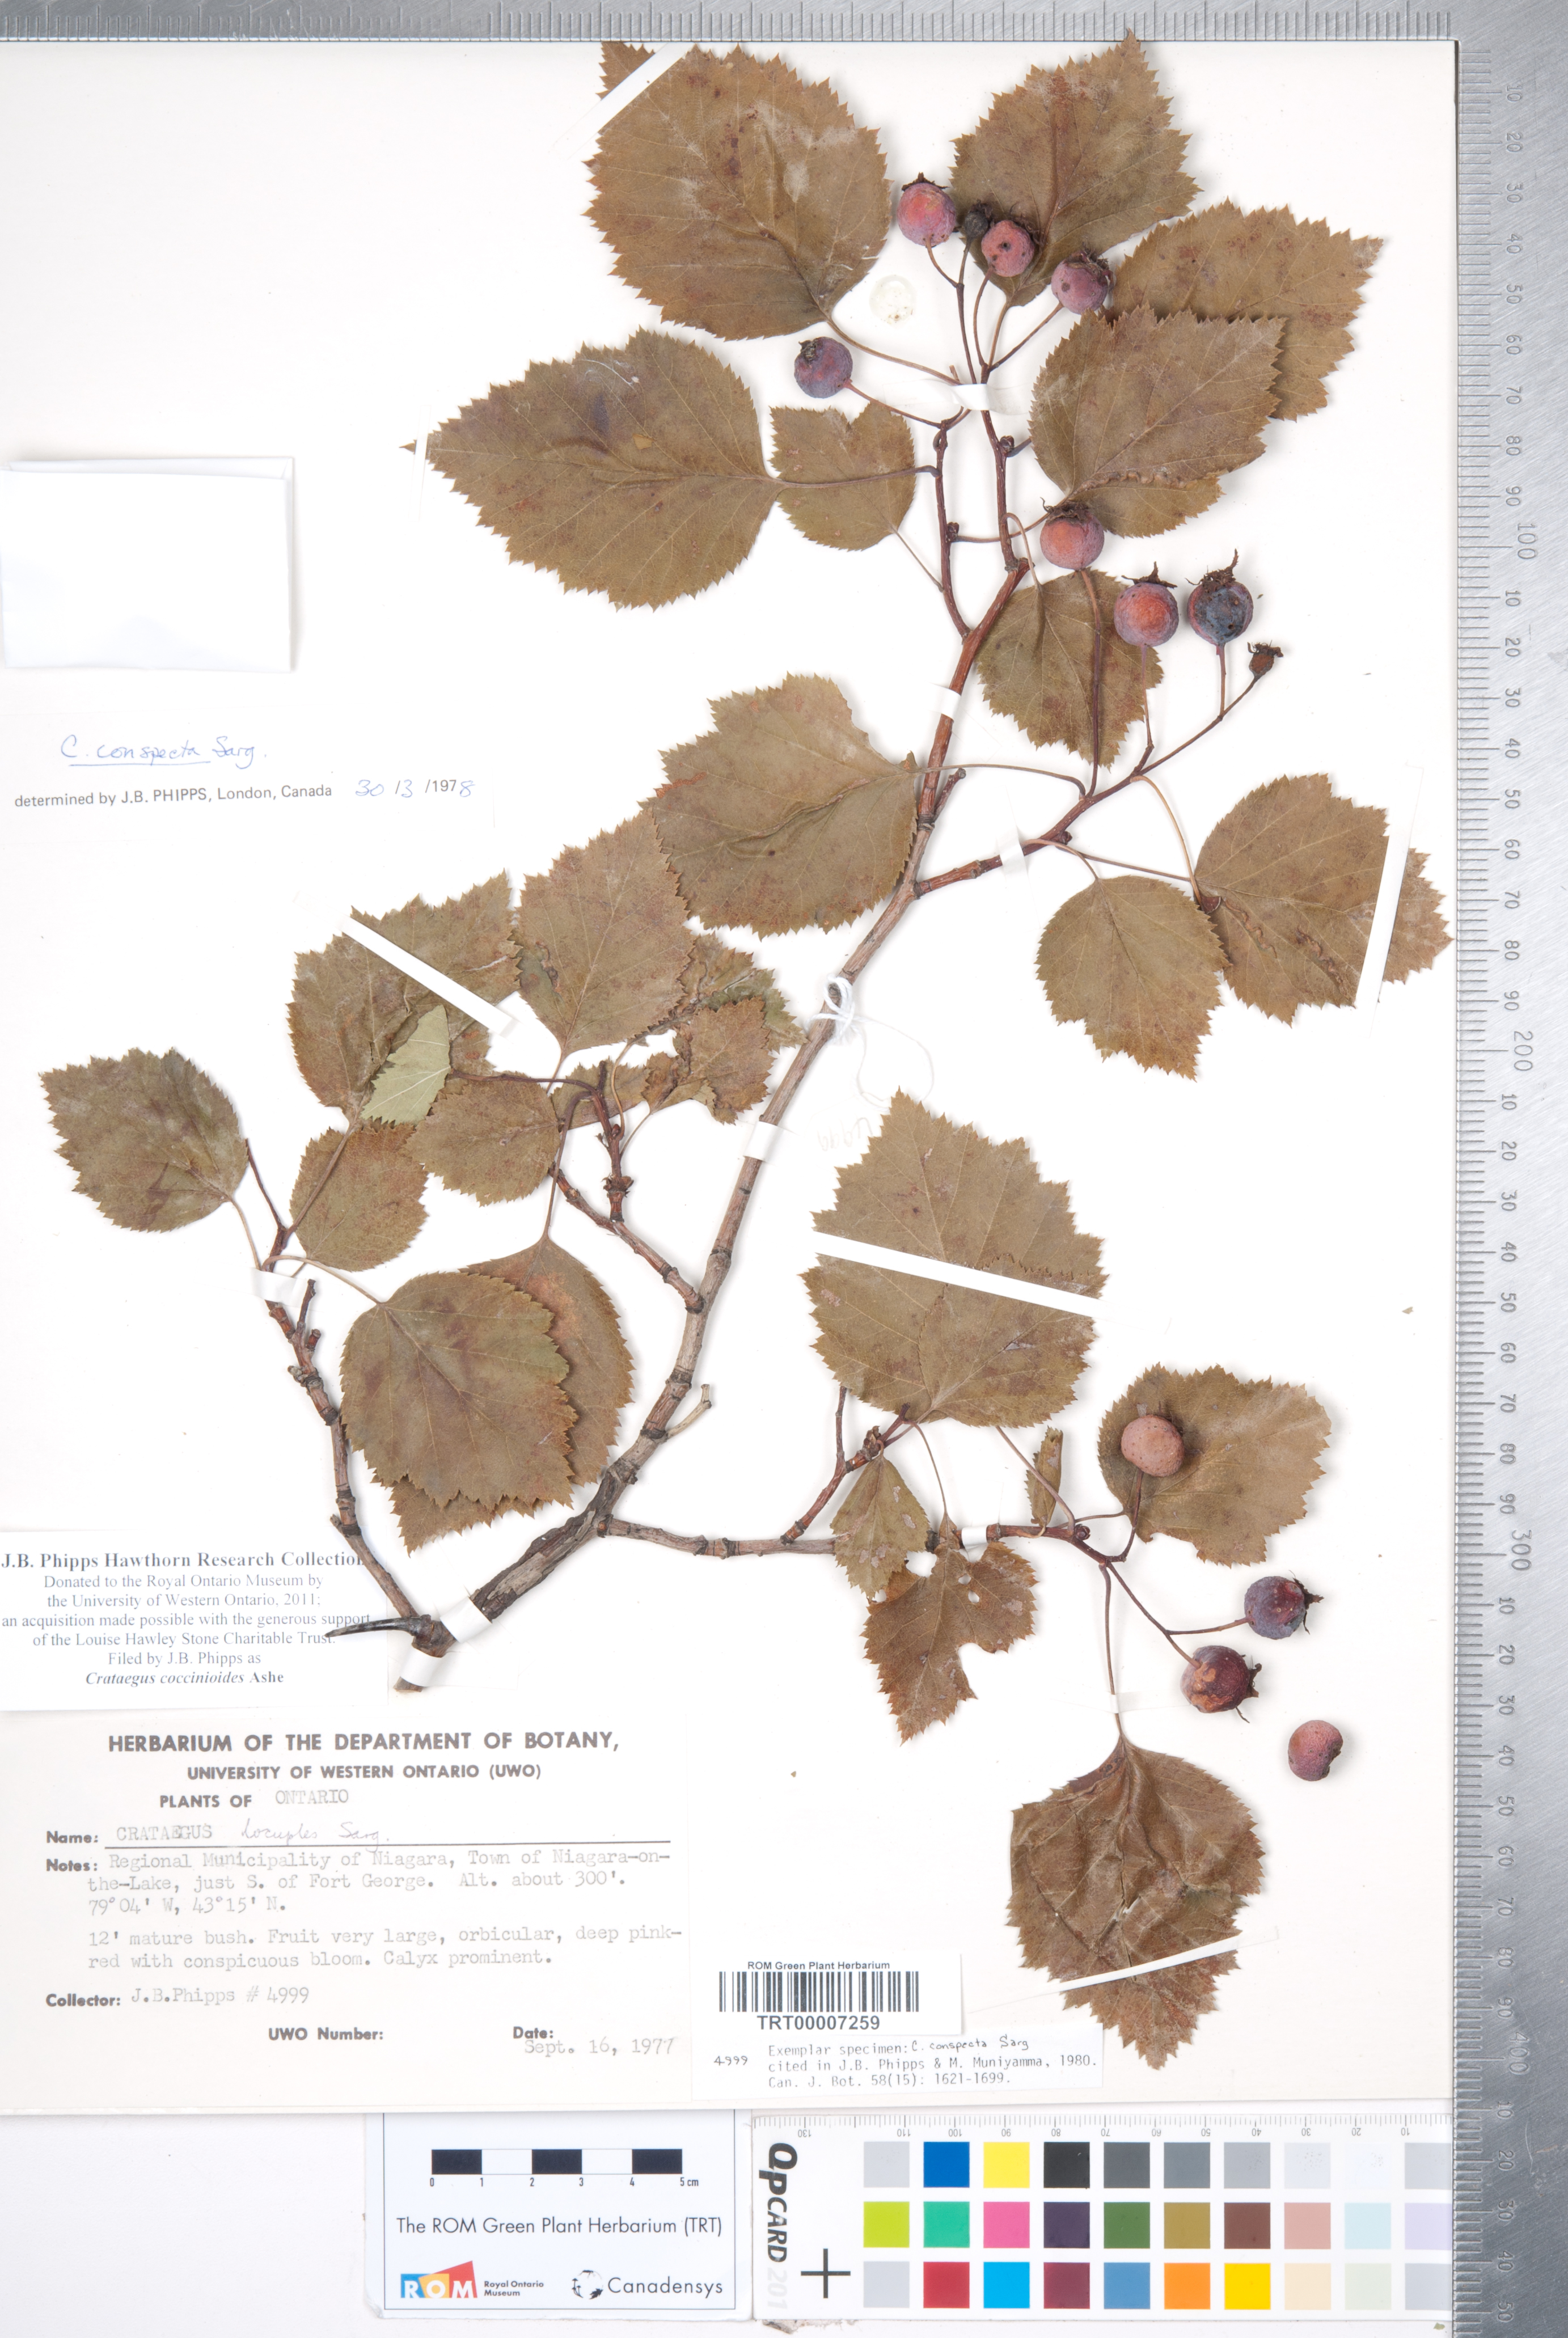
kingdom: Plantae
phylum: Tracheophyta
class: Magnoliopsida
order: Rosales
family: Rosaceae
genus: Crataegus
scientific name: Crataegus coccinioides
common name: Large-flowered cockspurthorn
